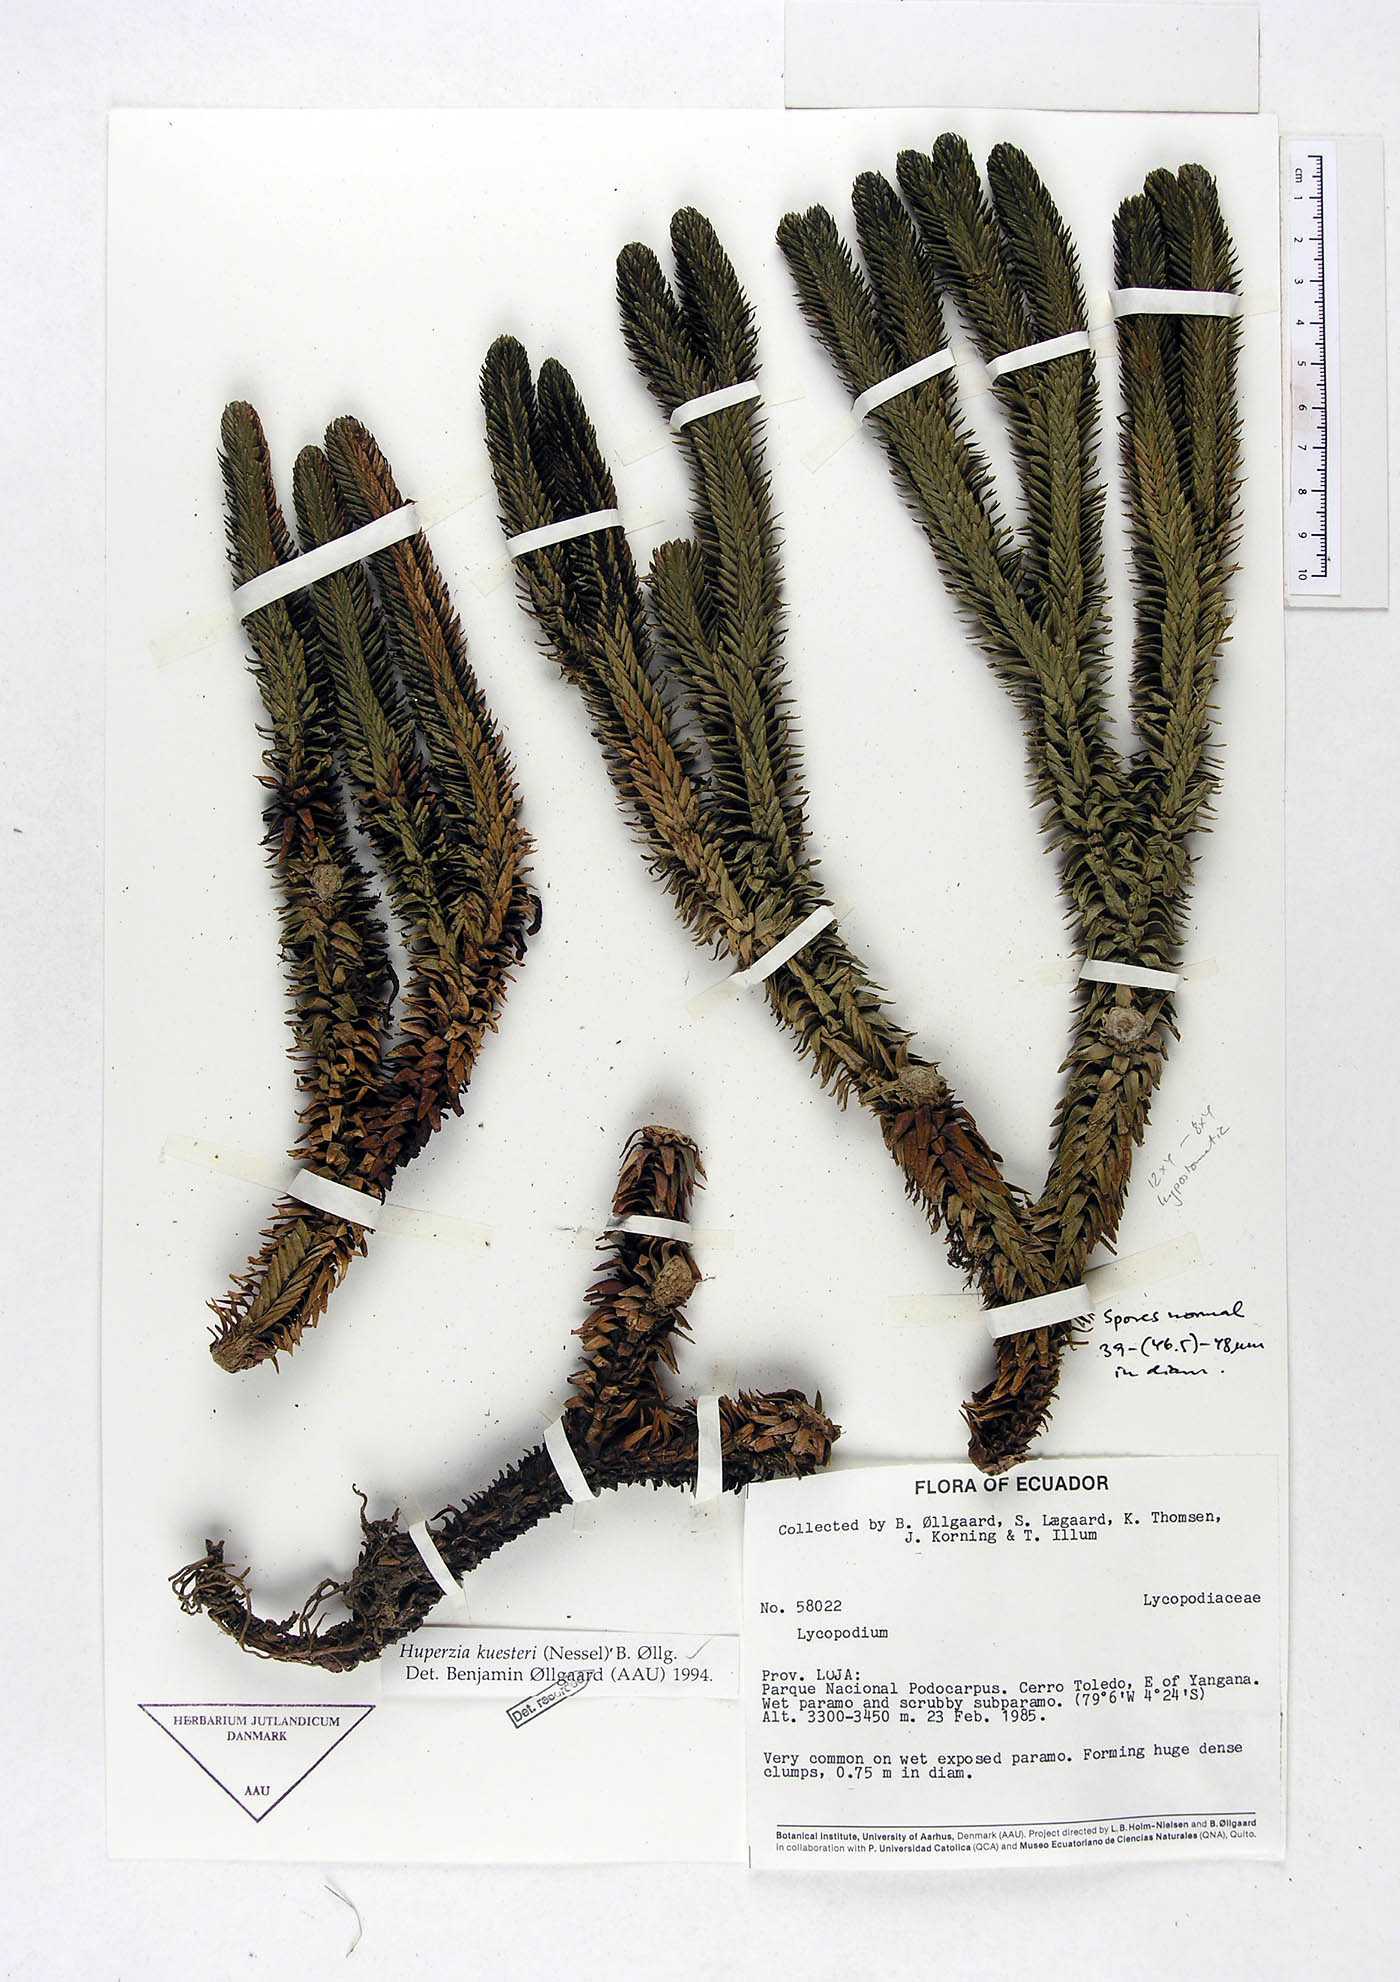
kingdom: Plantae
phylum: Tracheophyta
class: Lycopodiopsida
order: Lycopodiales
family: Lycopodiaceae
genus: Phlegmariurus
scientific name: Phlegmariurus kuesteri
